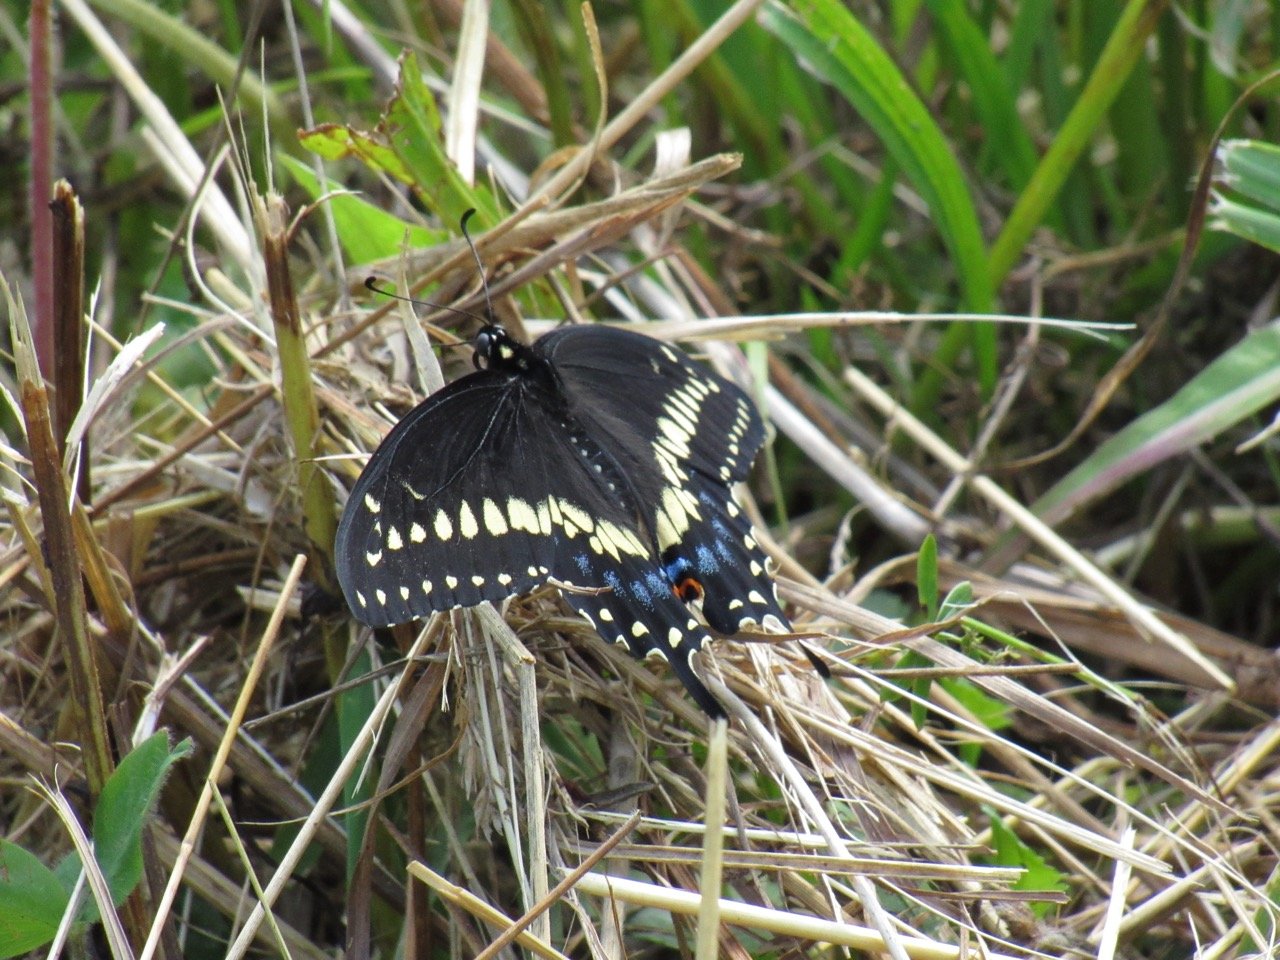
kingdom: Animalia
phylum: Arthropoda
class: Insecta
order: Lepidoptera
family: Papilionidae
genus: Papilio
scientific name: Papilio polyxenes
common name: Black Swallowtail
